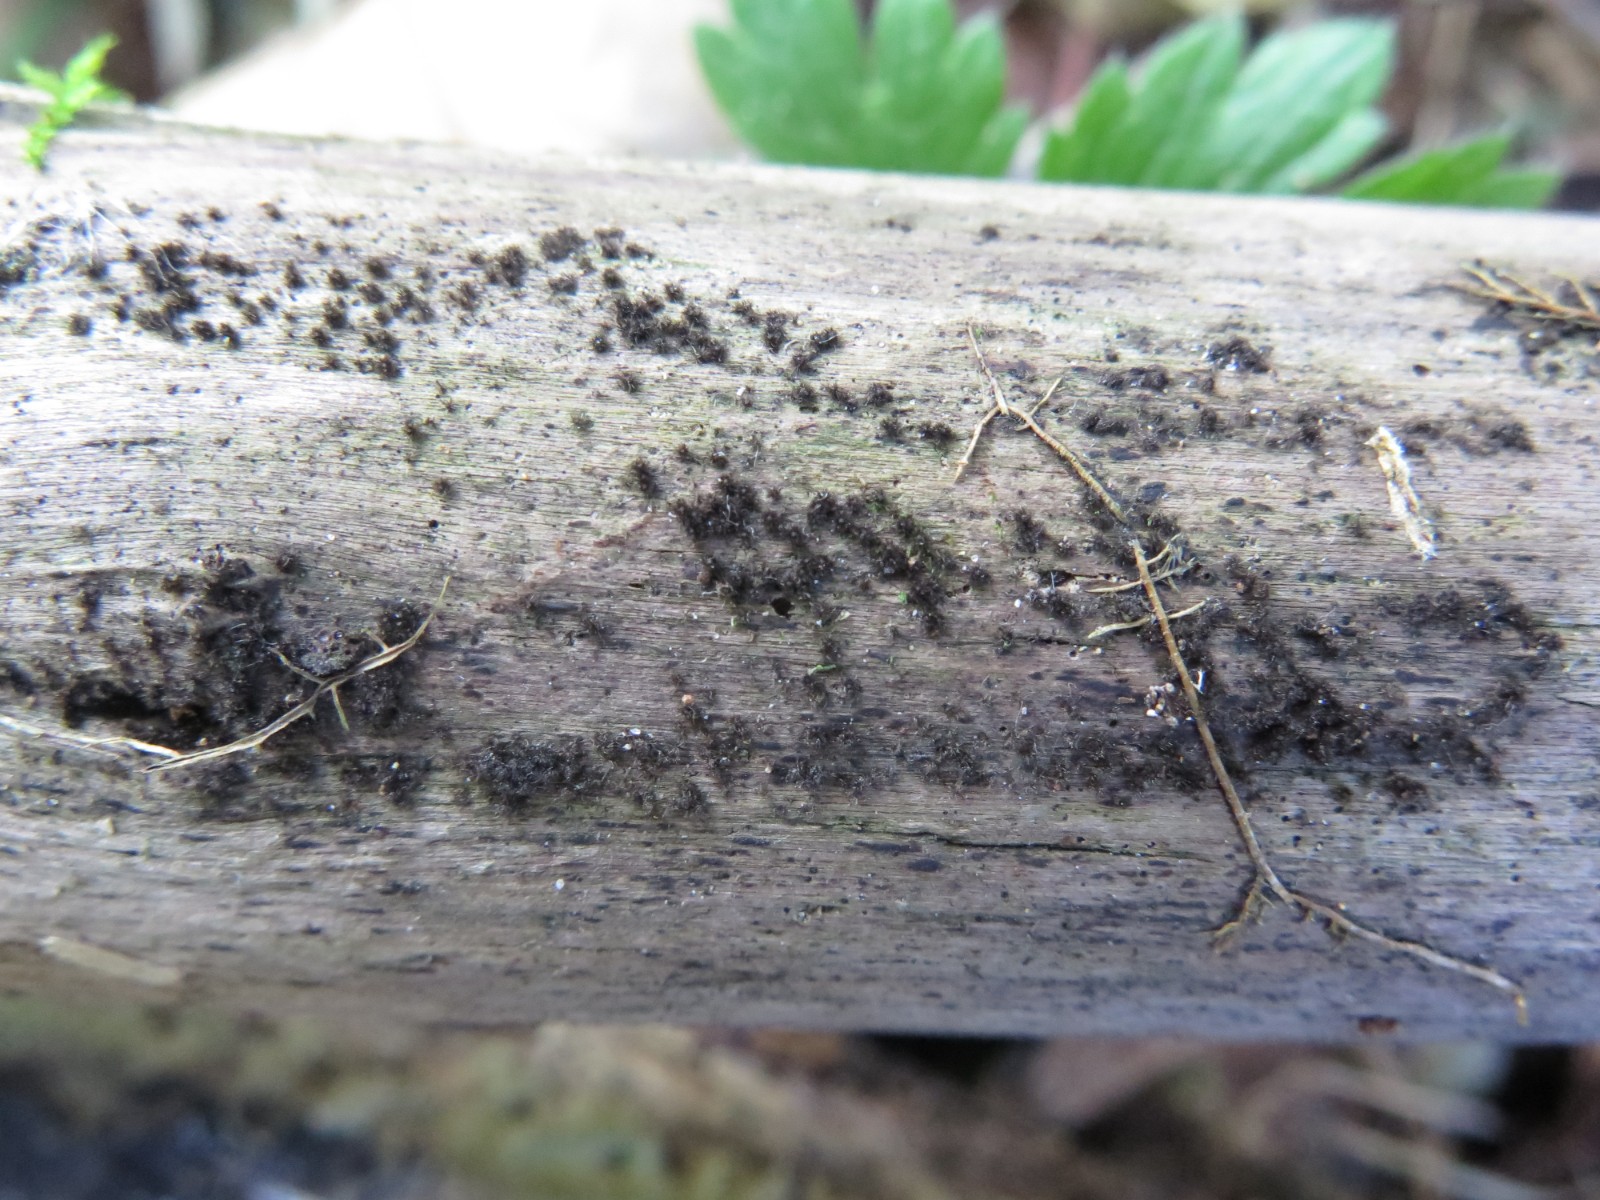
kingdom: Fungi
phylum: Ascomycota
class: Sordariomycetes
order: Sordariales
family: Helminthosphaeriaceae
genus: Echinosphaeria
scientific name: Echinosphaeria strigosa
